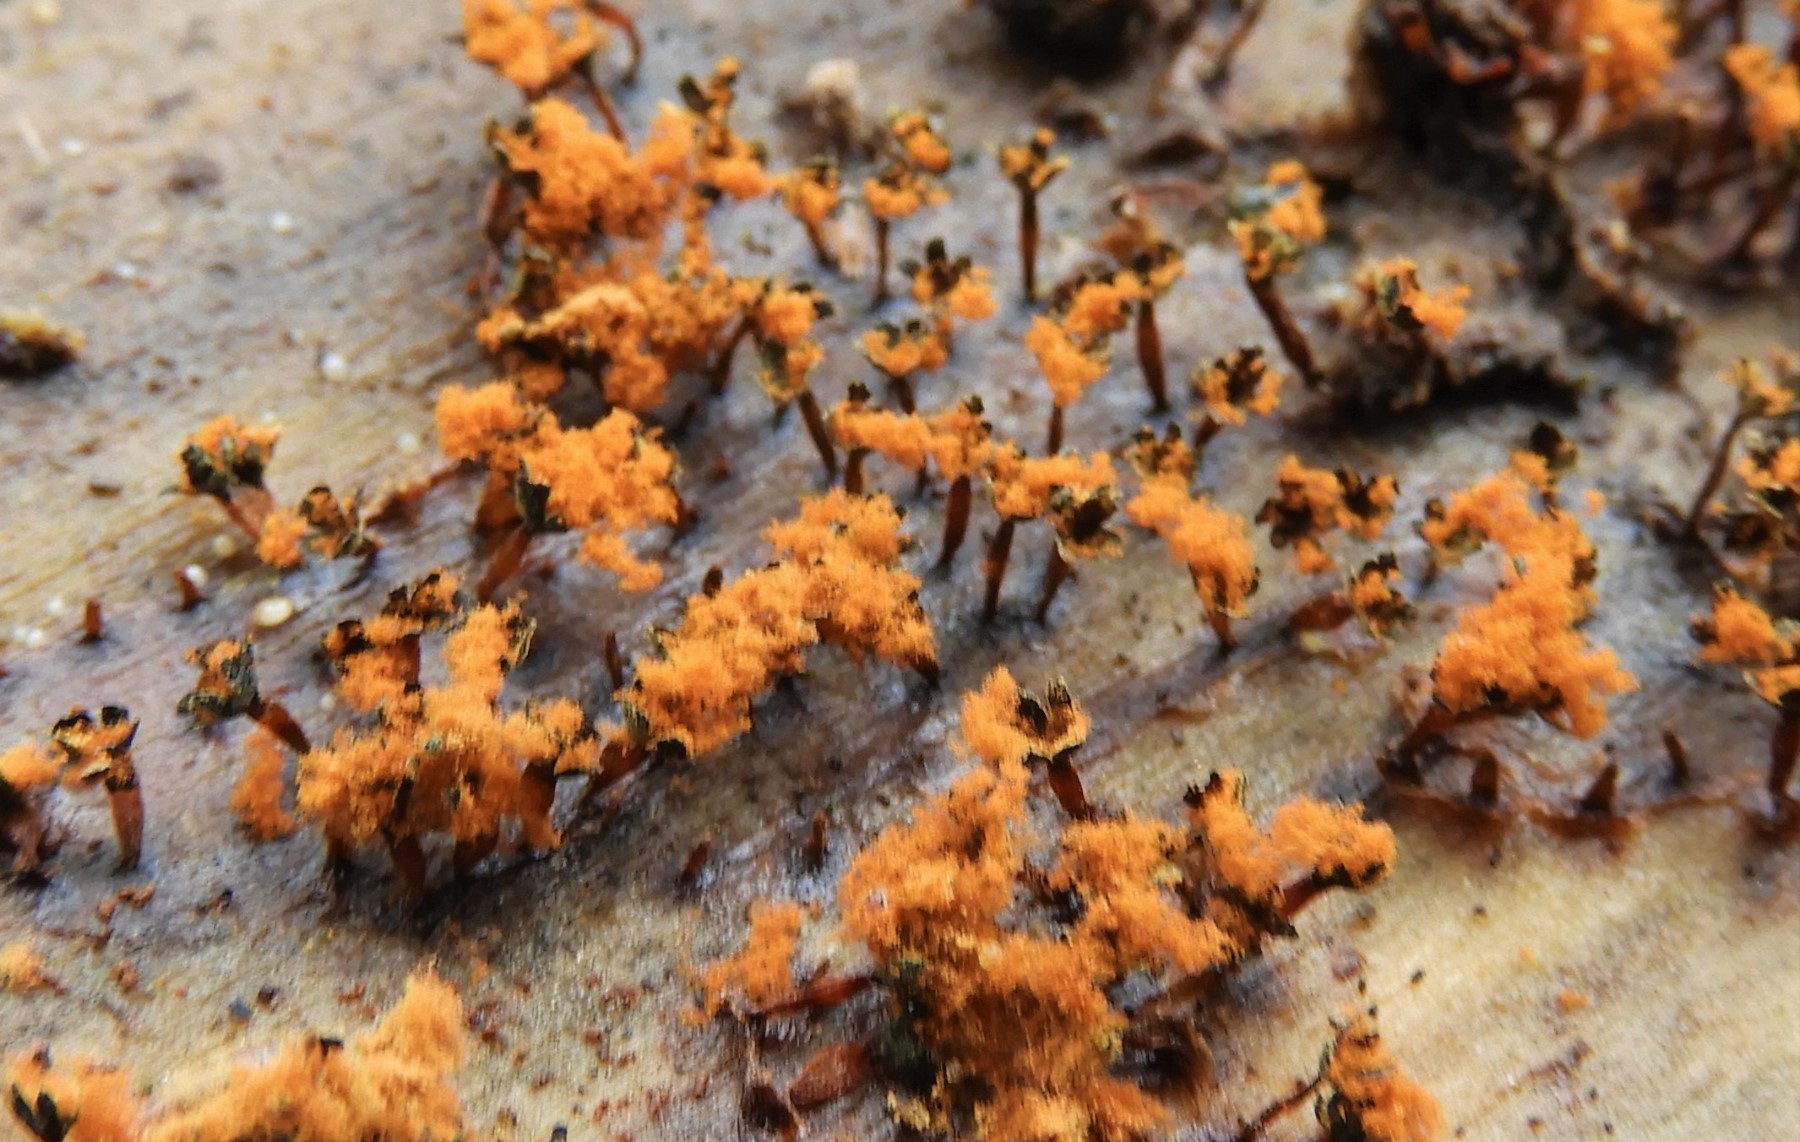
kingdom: Protozoa
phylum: Mycetozoa
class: Myxomycetes
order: Trichiales
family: Trichiaceae
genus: Metatrichia
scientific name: Metatrichia floriformis
